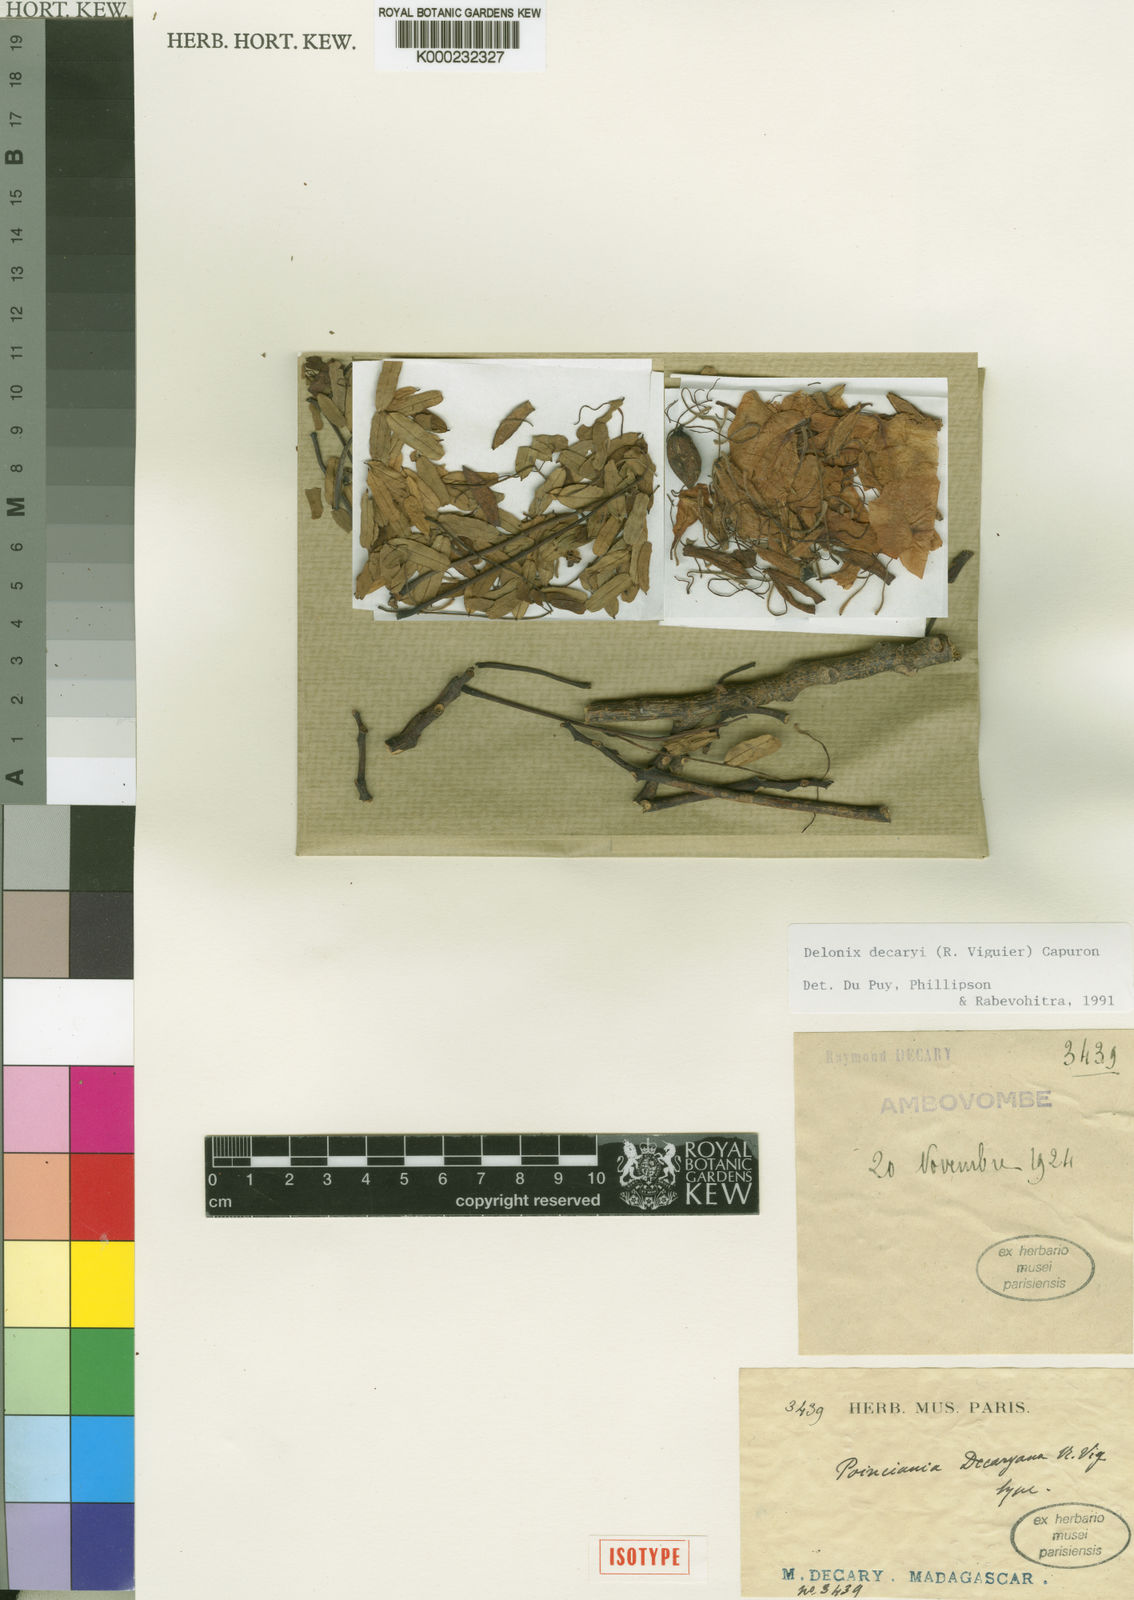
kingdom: Plantae
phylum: Tracheophyta
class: Magnoliopsida
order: Fabales
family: Fabaceae
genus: Delonix
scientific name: Delonix decaryi
